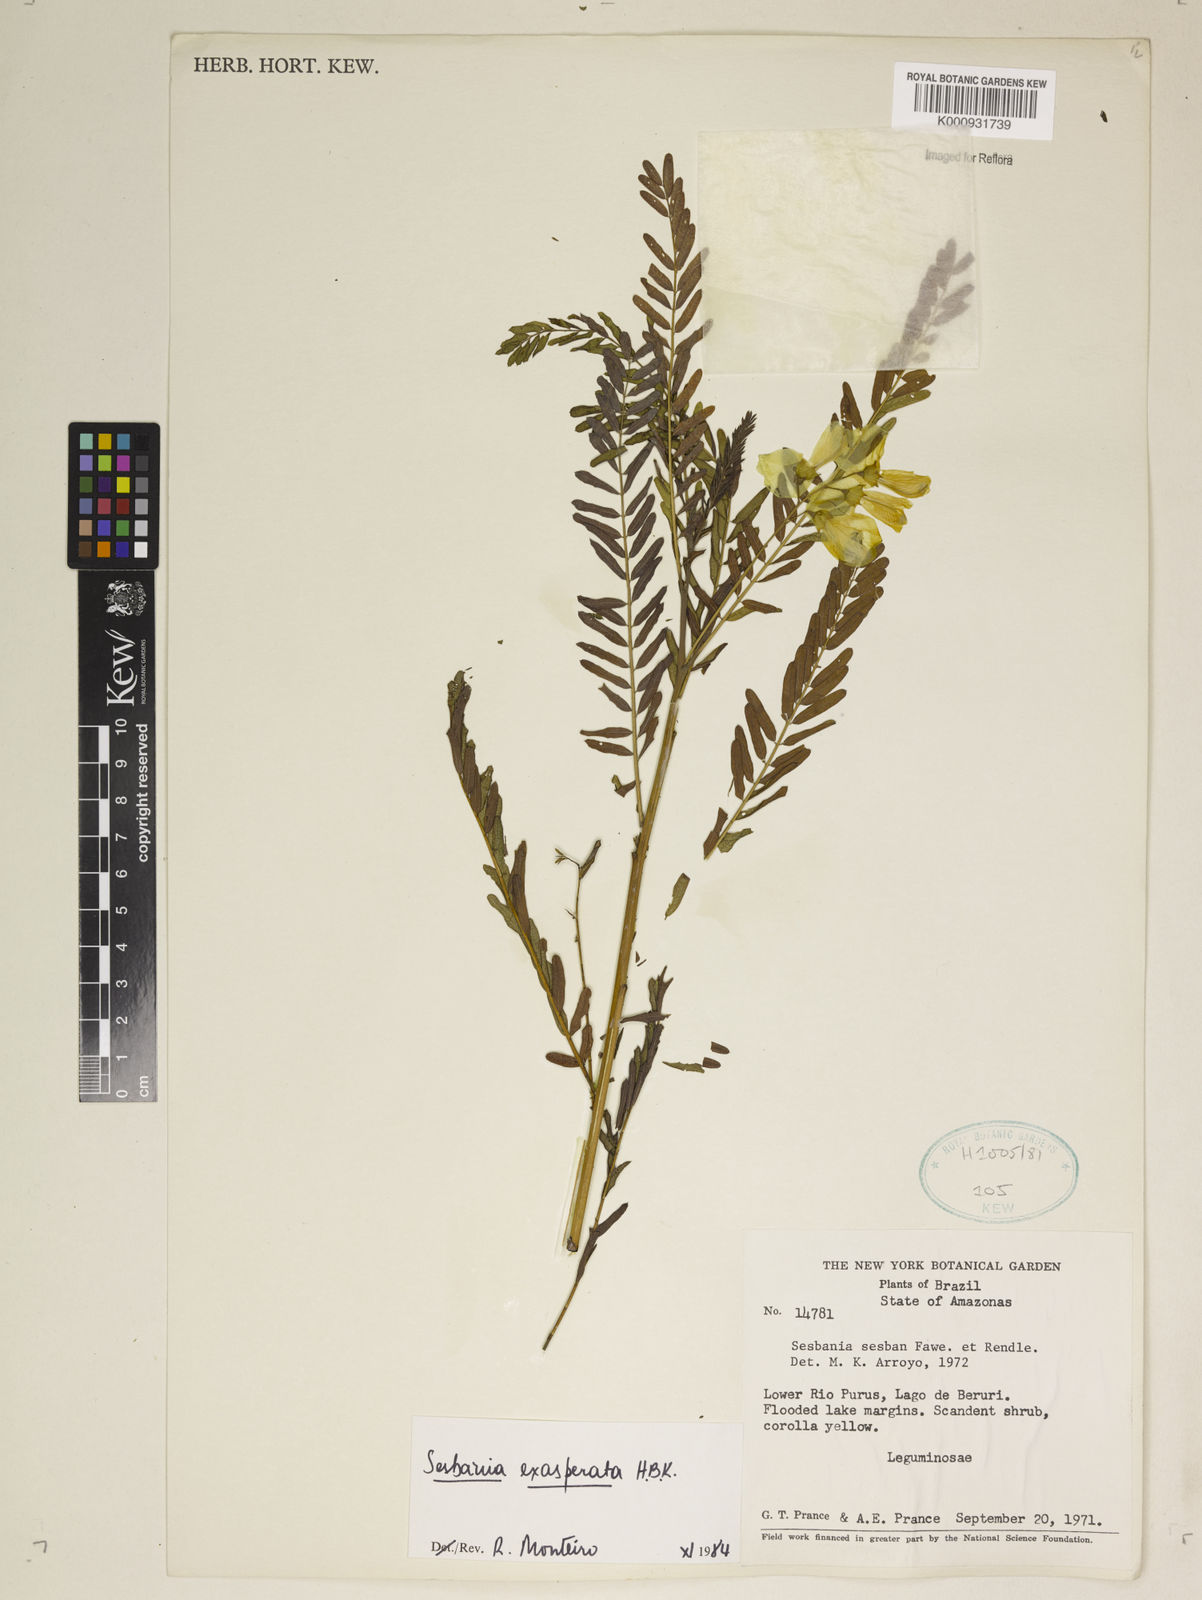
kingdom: Plantae
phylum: Tracheophyta
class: Magnoliopsida
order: Fabales
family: Fabaceae
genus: Sesbania
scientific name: Sesbania exasperata
